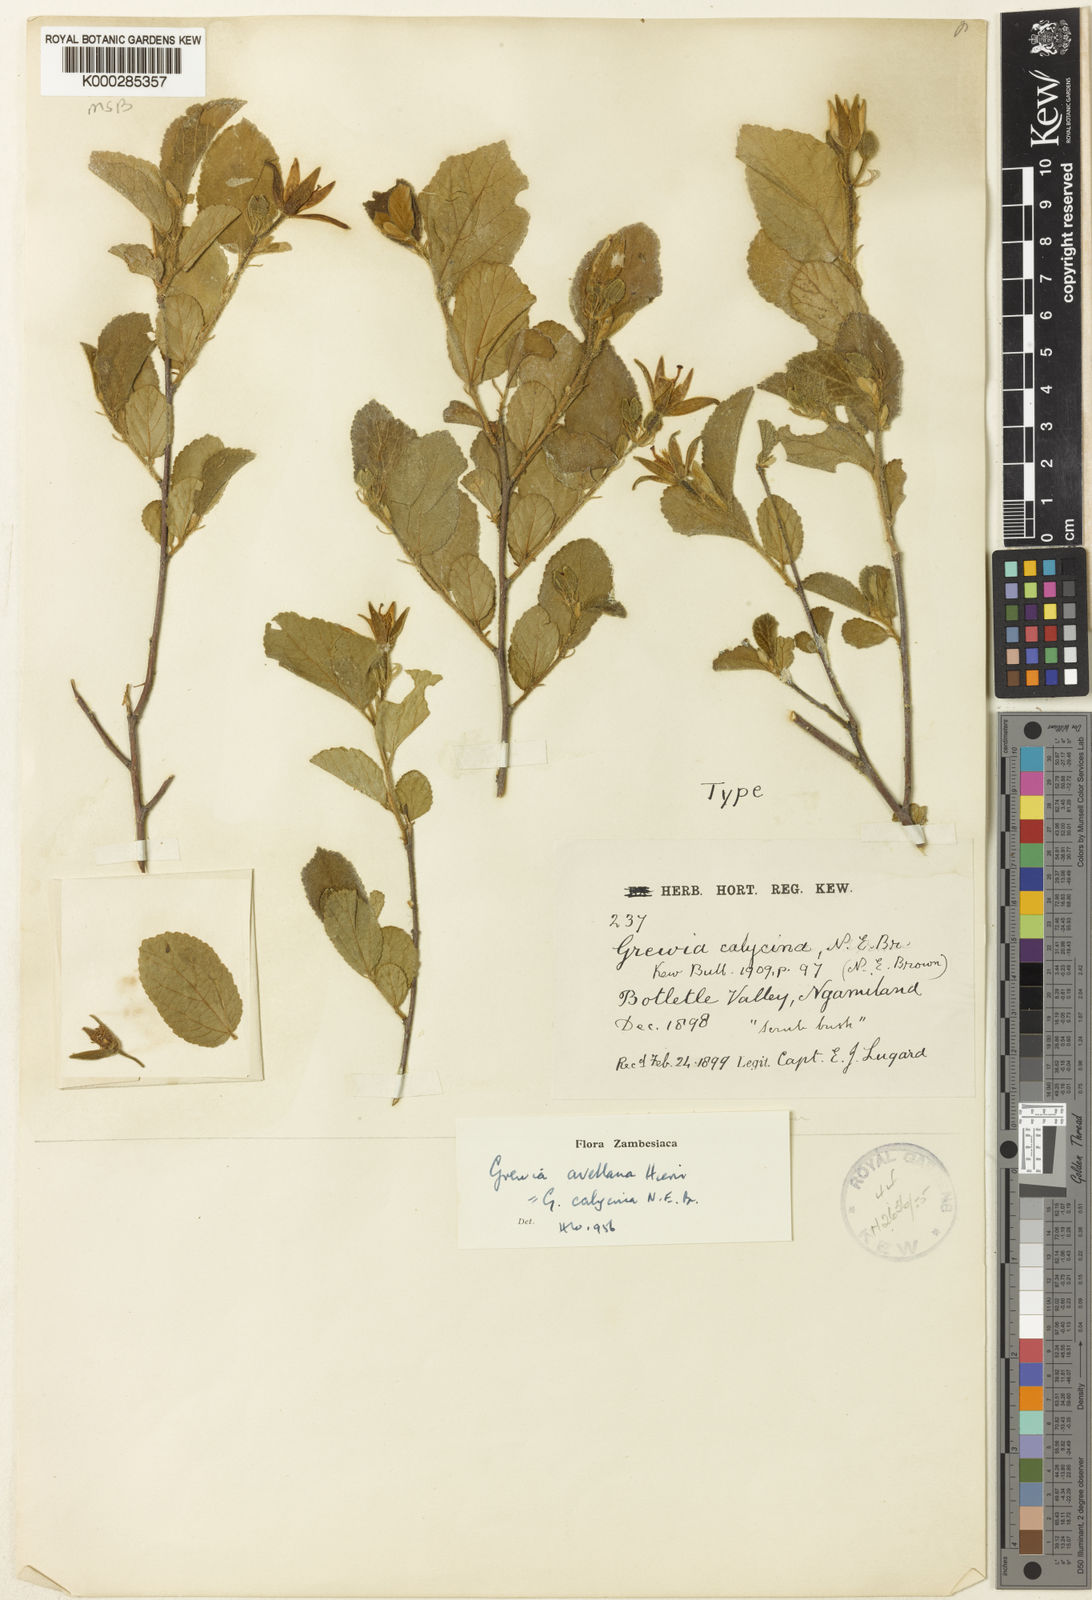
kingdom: Plantae
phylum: Tracheophyta
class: Magnoliopsida
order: Malvales
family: Malvaceae
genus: Grewia
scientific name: Grewia avellana
